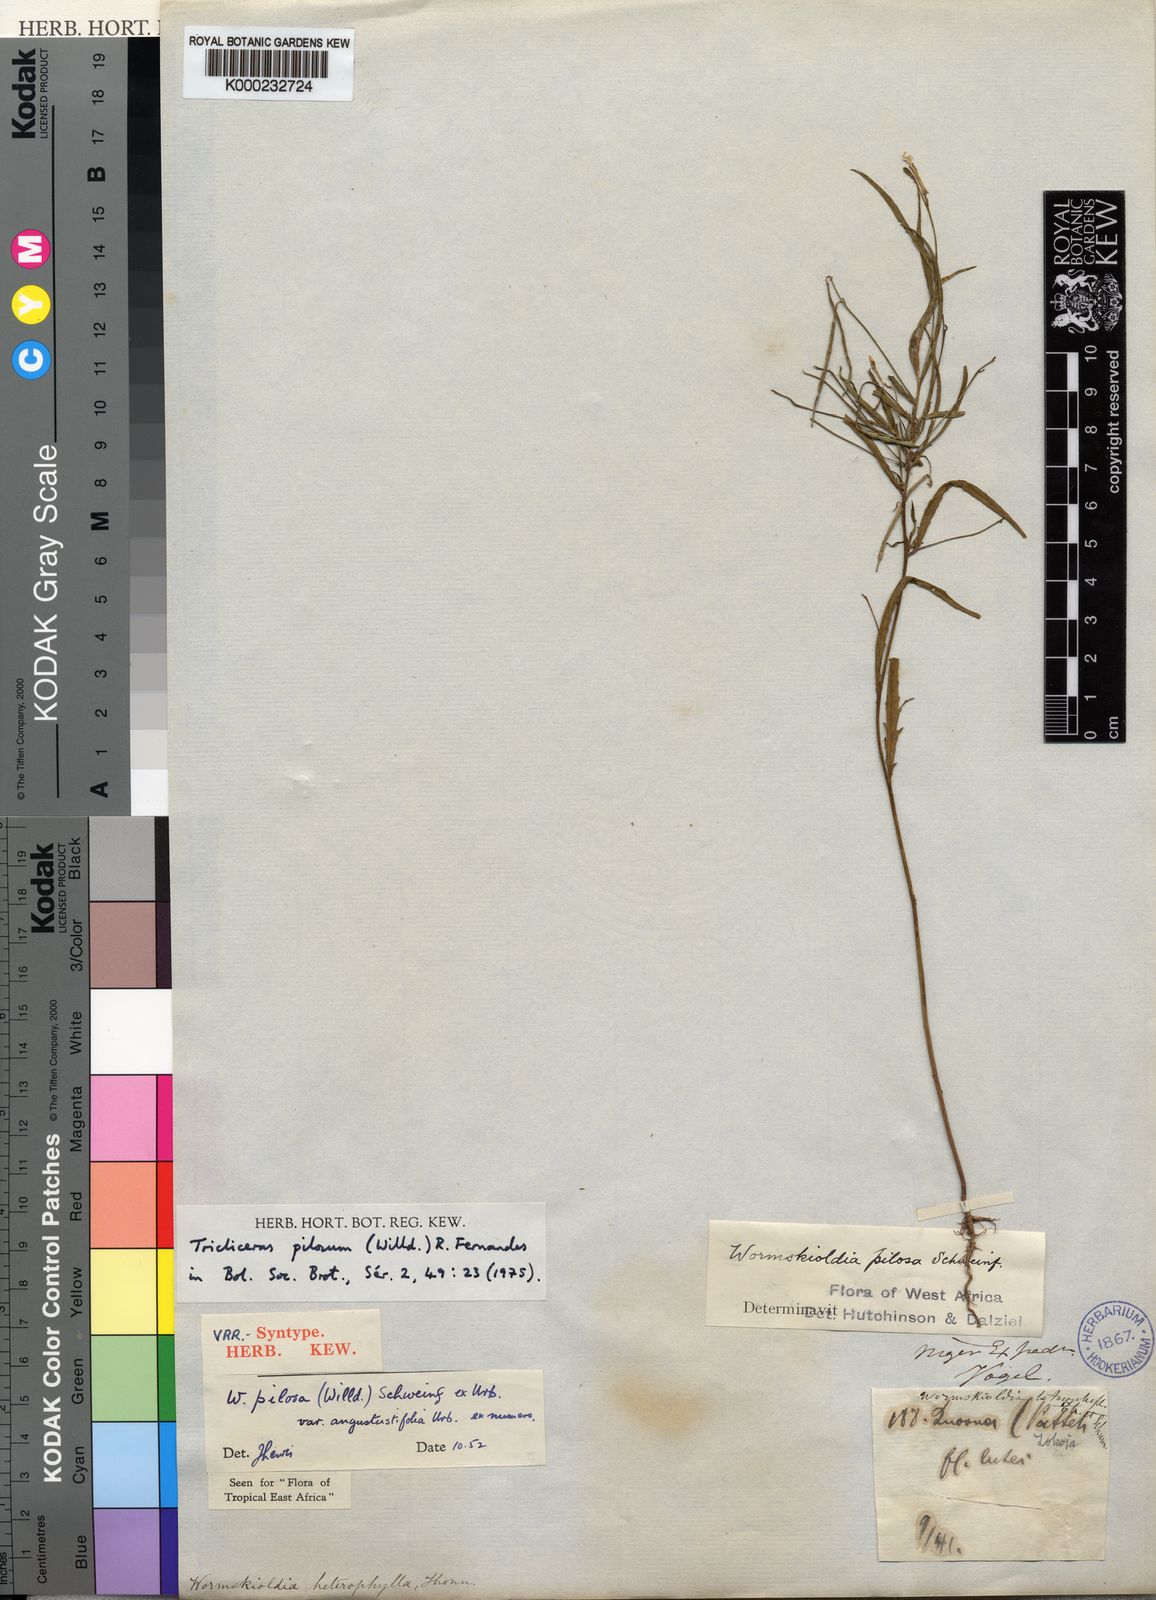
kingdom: Plantae
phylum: Tracheophyta
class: Magnoliopsida
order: Malpighiales
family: Turneraceae
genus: Tricliceras
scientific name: Tricliceras pilosum
